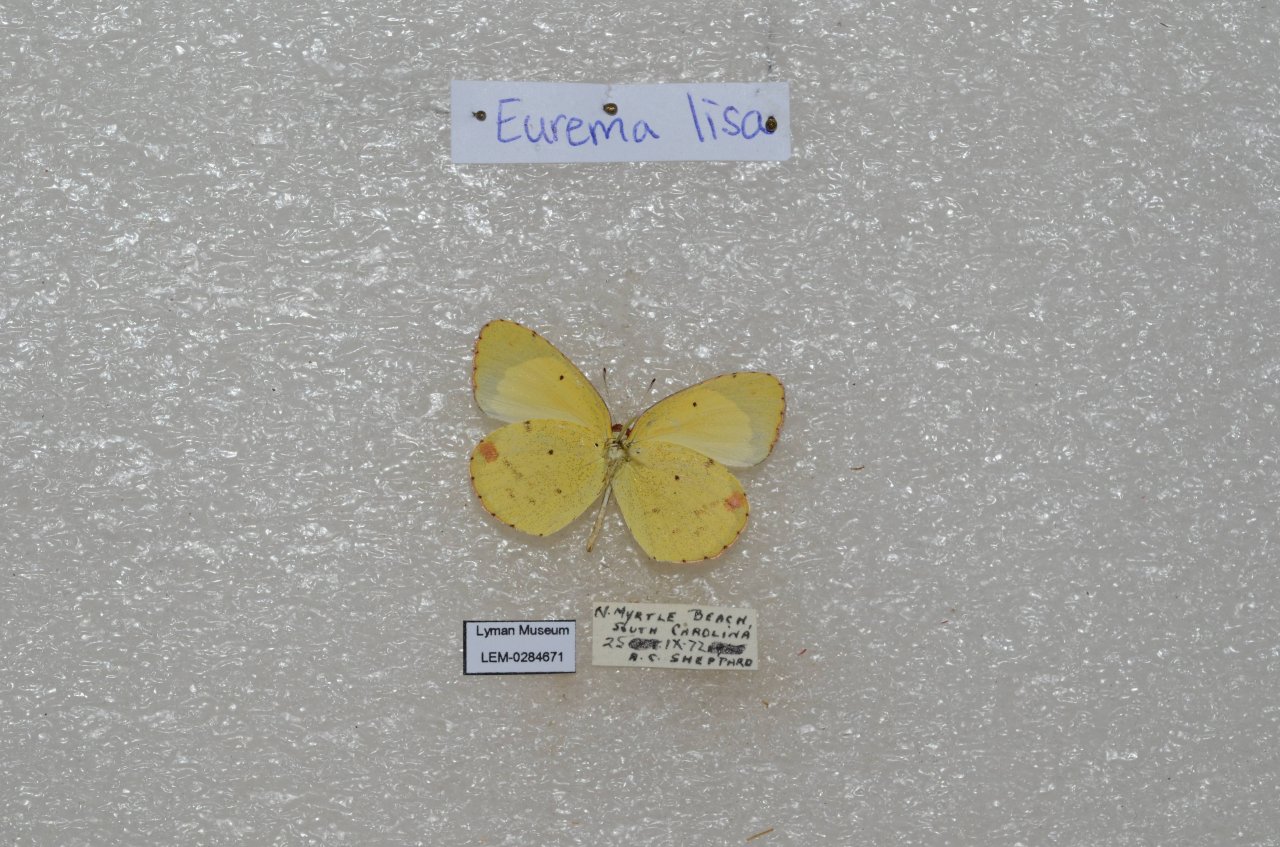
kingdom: Animalia
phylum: Arthropoda
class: Insecta
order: Lepidoptera
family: Pieridae
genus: Pyrisitia
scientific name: Pyrisitia lisa
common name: Little Yellow
